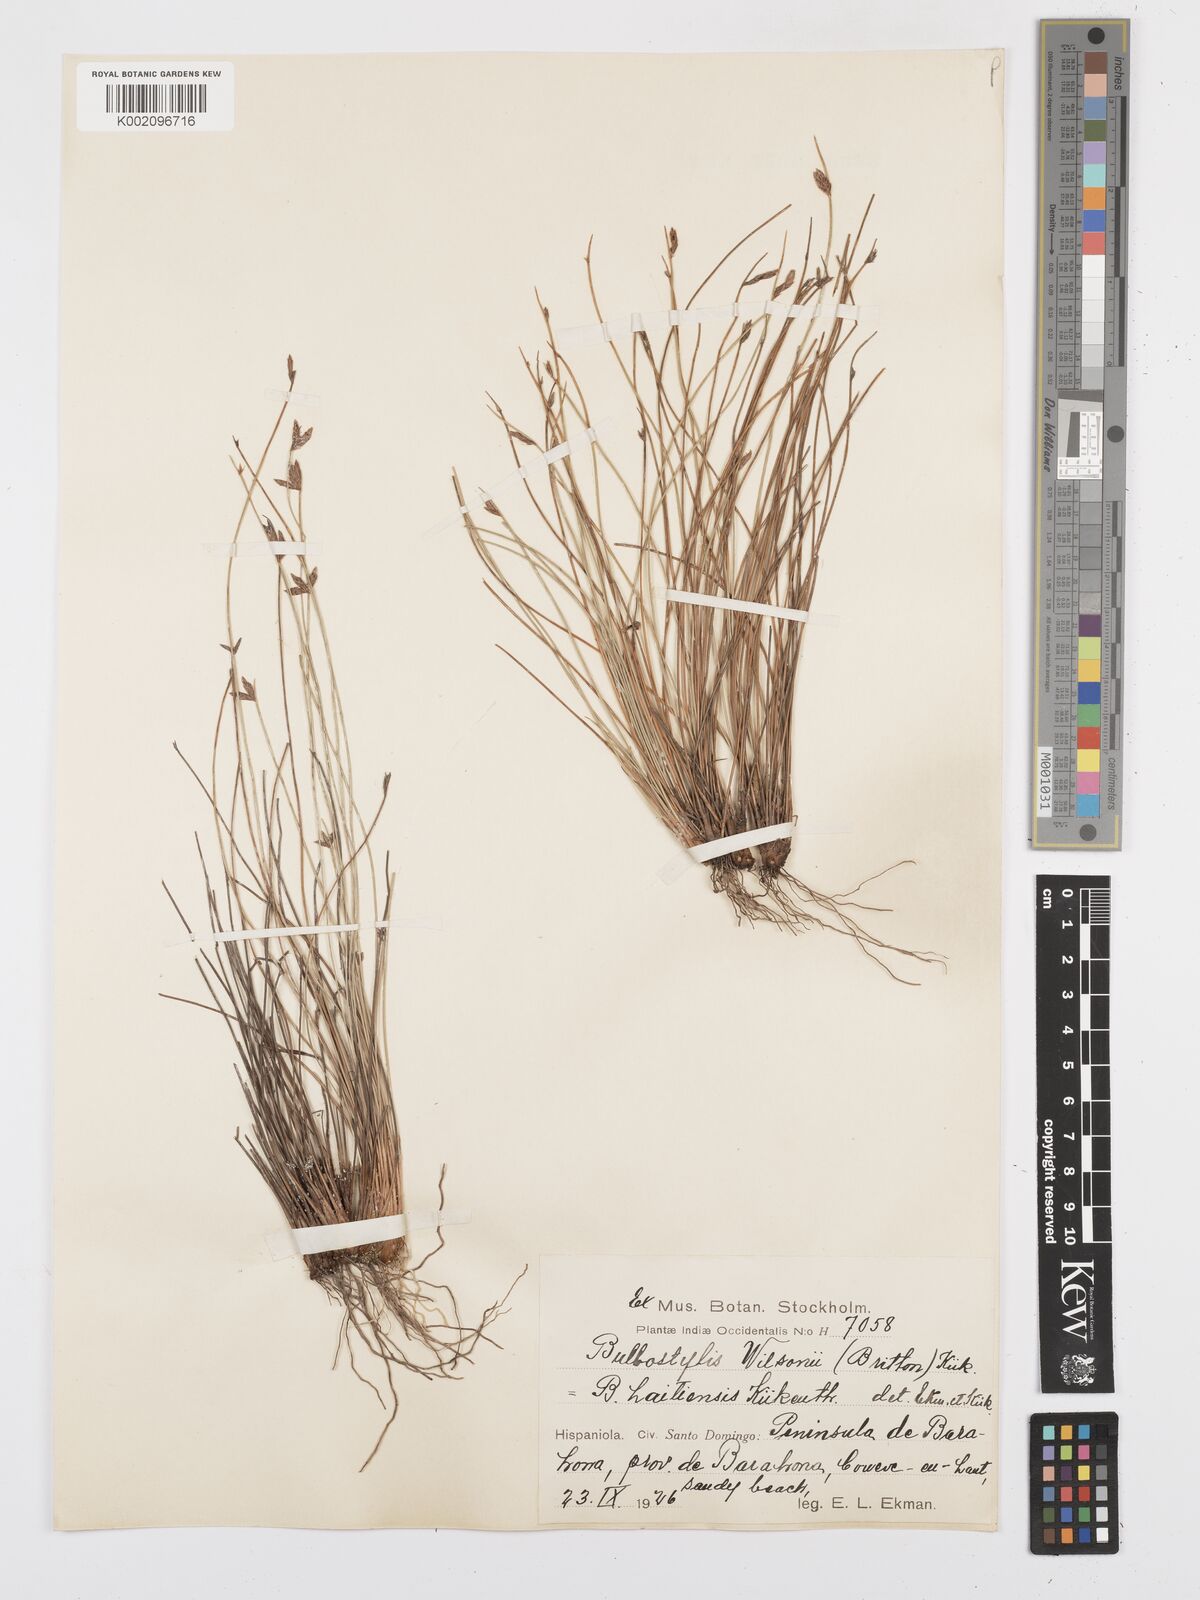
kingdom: Plantae
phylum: Tracheophyta
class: Liliopsida
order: Poales
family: Cyperaceae
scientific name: Cyperaceae
